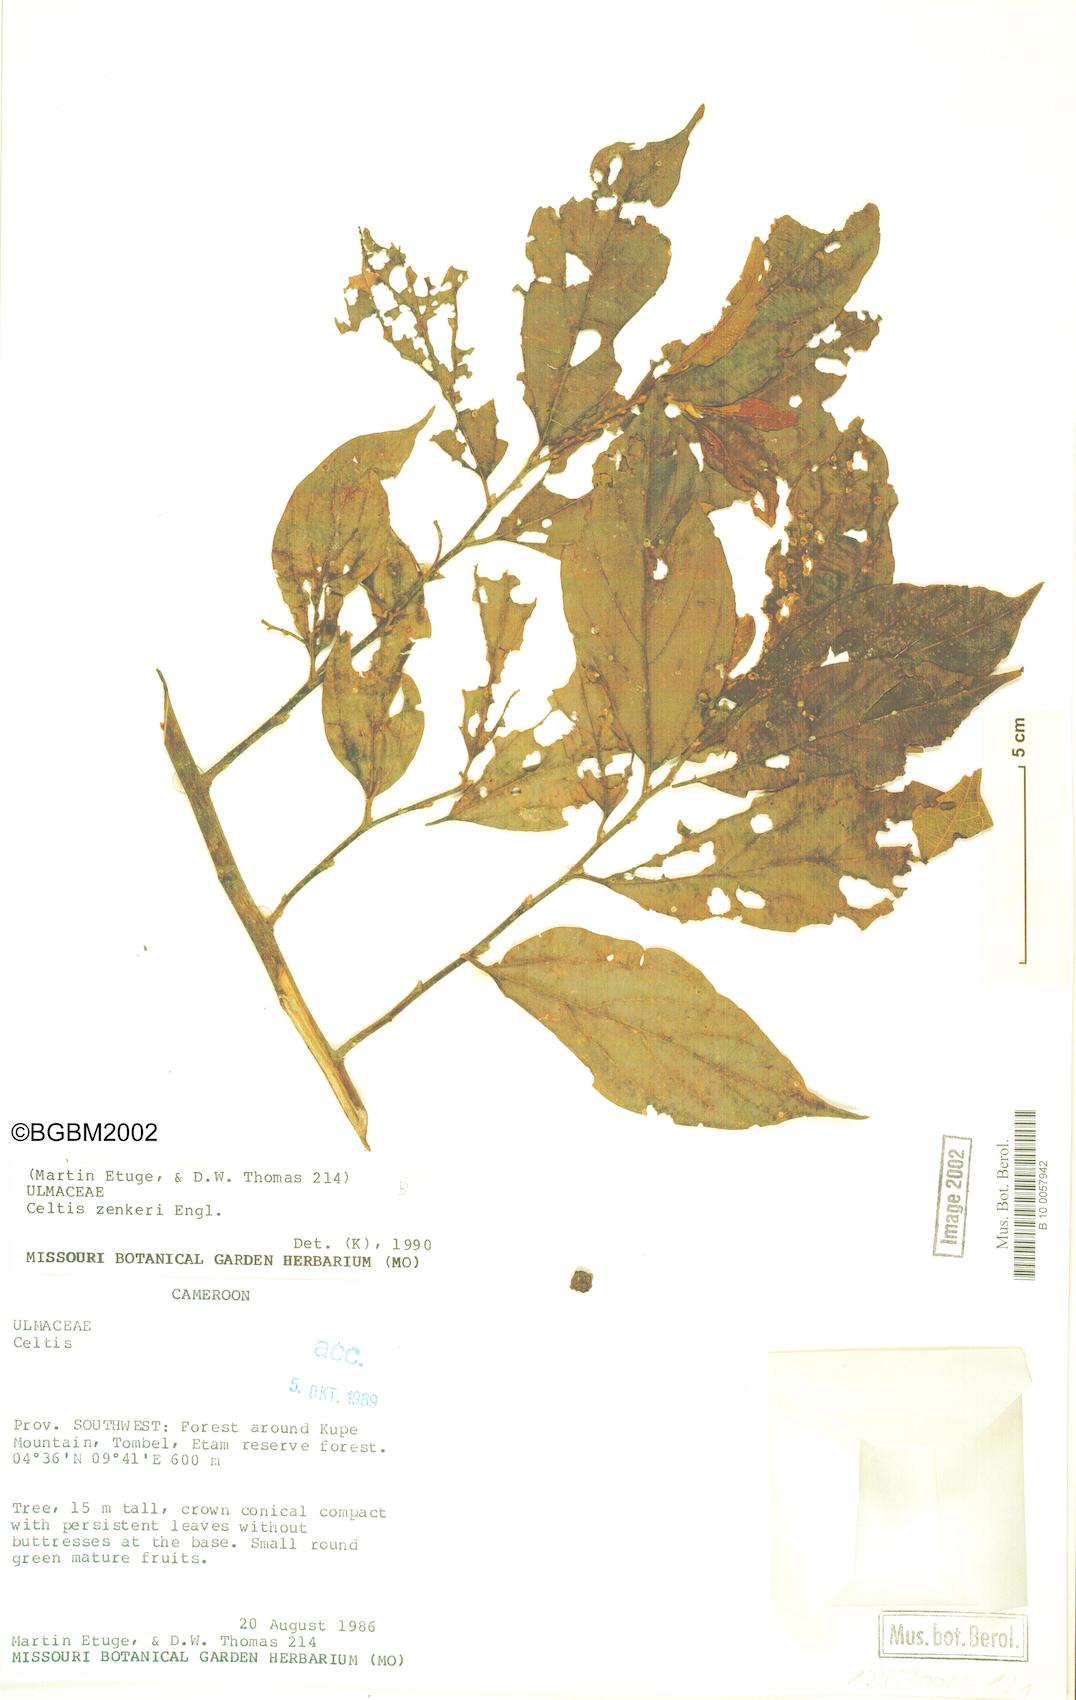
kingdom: Plantae
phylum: Tracheophyta
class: Magnoliopsida
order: Rosales
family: Cannabaceae
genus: Celtis
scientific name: Celtis zenkeri
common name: African celtis
